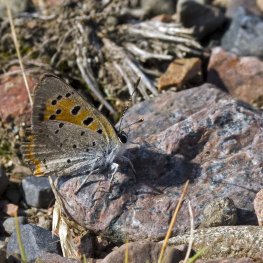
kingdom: Animalia
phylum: Arthropoda
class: Insecta
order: Lepidoptera
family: Lycaenidae
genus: Lycaena
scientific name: Lycaena phlaeas
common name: American Copper
